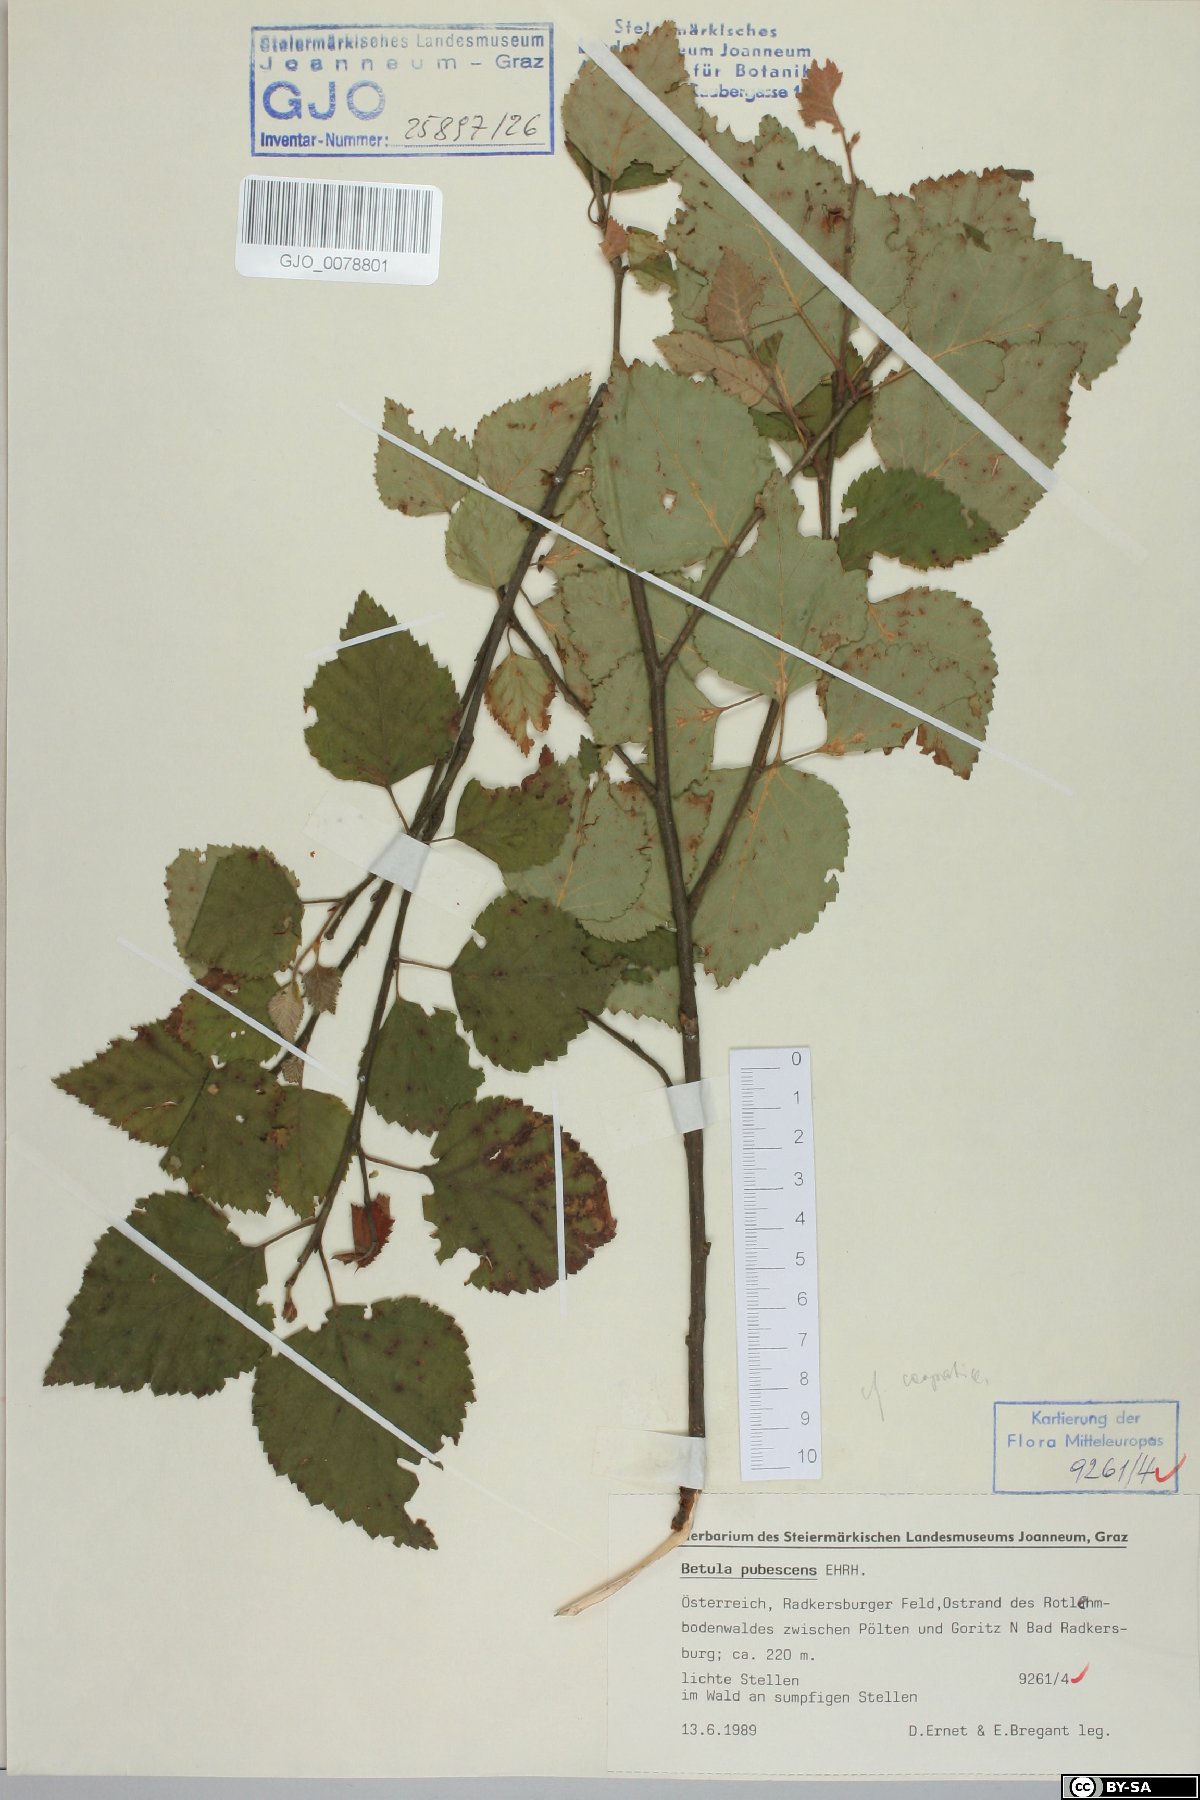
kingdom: Plantae
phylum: Tracheophyta
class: Magnoliopsida
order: Fagales
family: Betulaceae
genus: Betula
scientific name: Betula pubescens
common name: Downy birch
